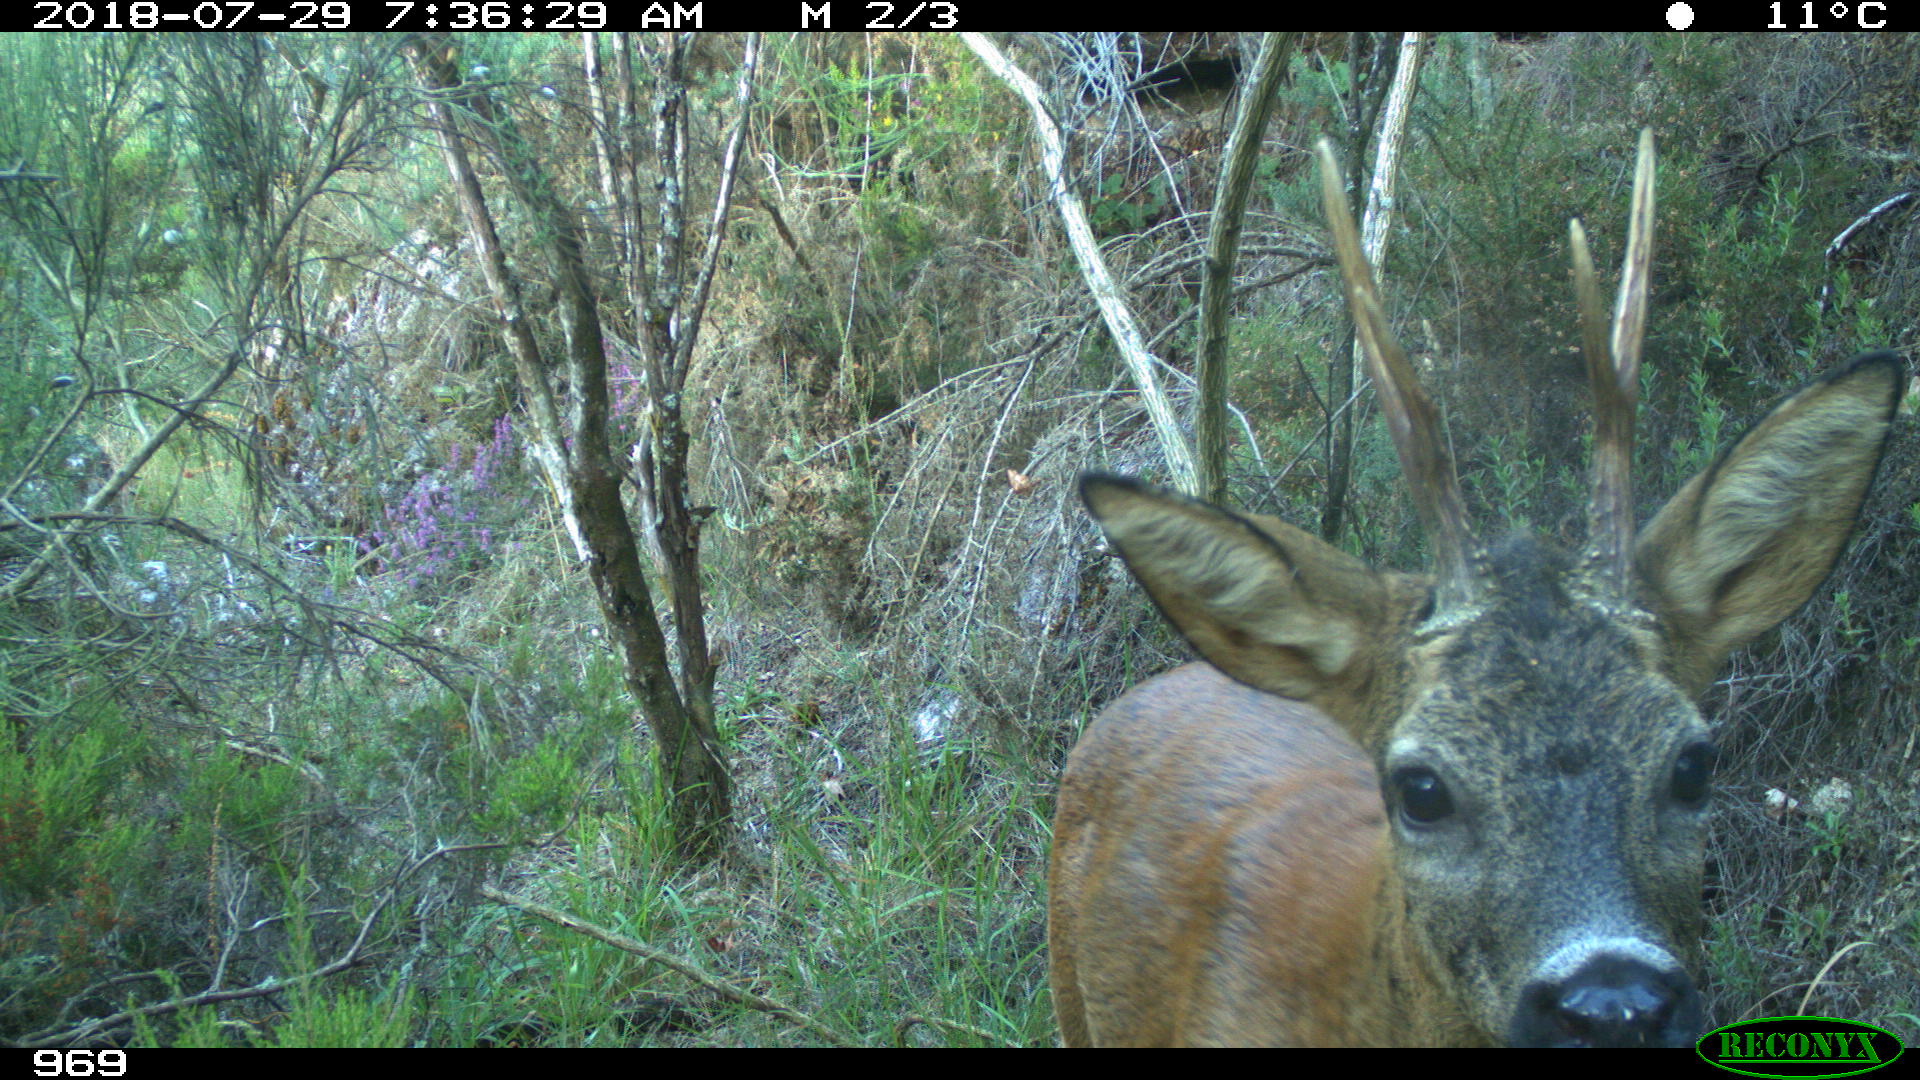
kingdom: Animalia
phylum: Chordata
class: Mammalia
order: Artiodactyla
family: Cervidae
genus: Capreolus
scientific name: Capreolus capreolus
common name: Western roe deer
